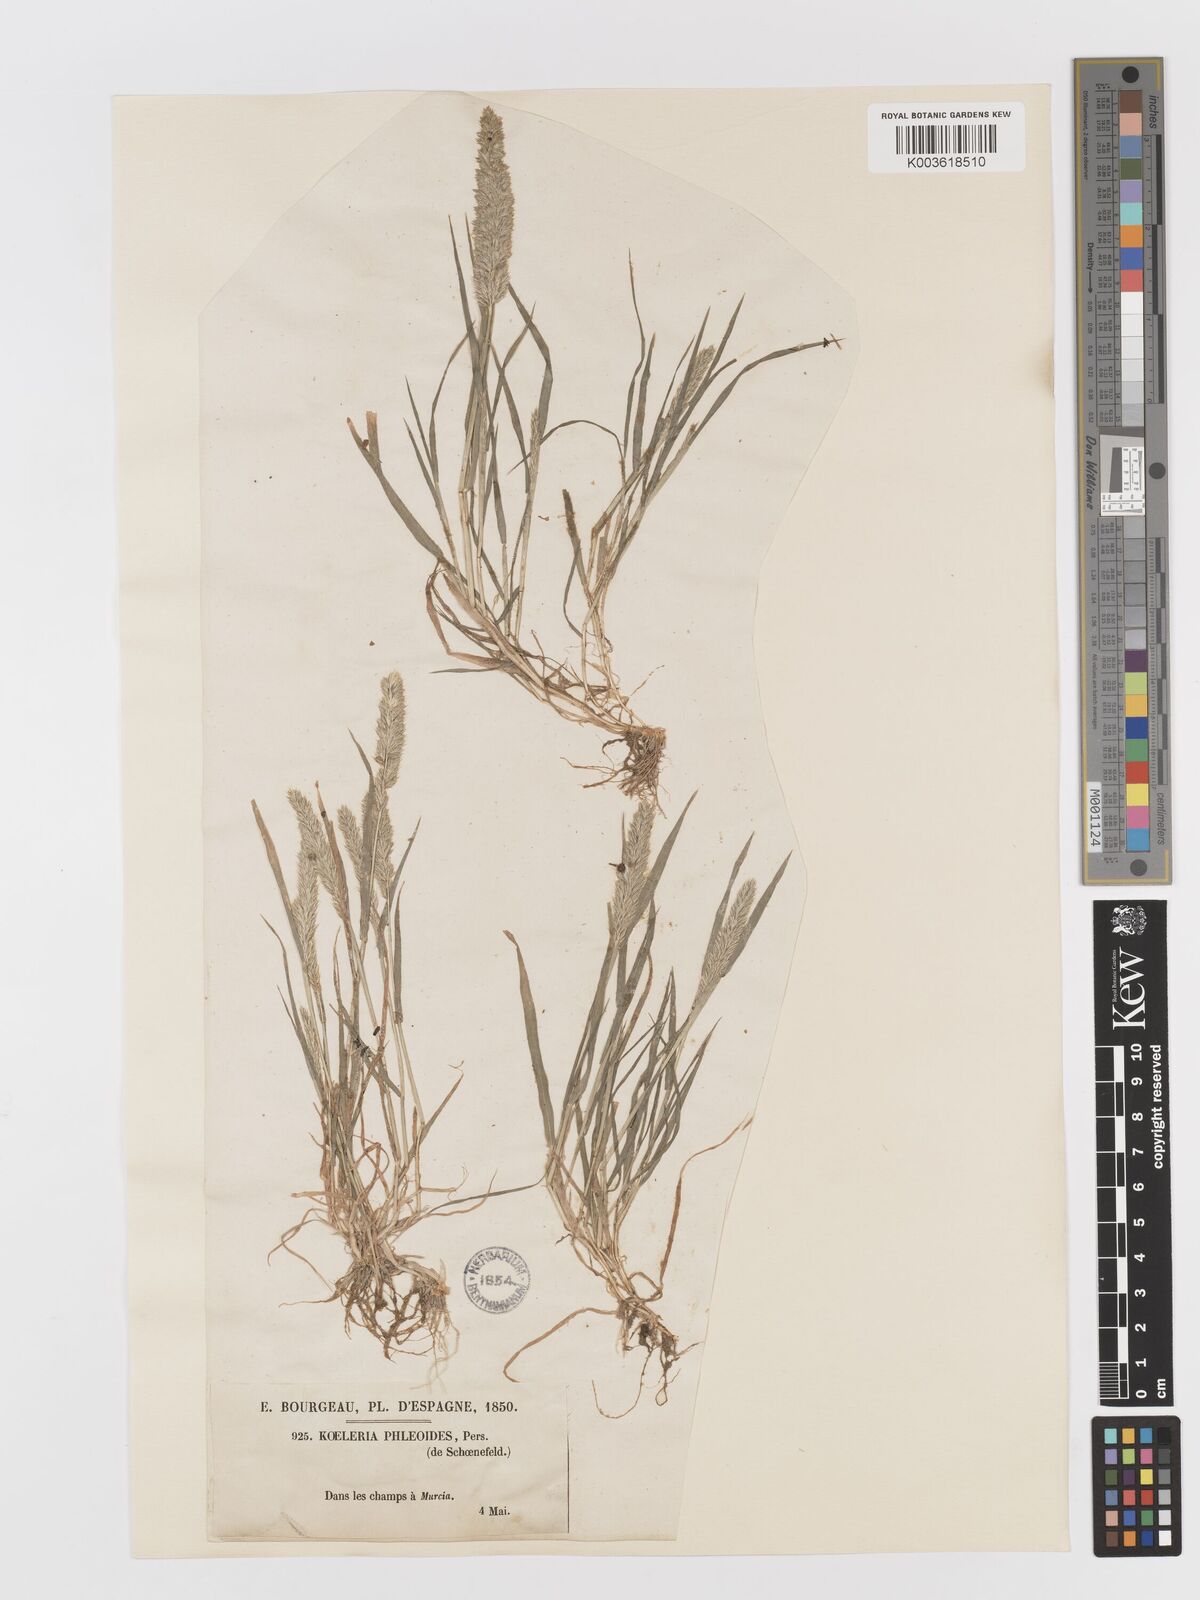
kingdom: Plantae
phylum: Tracheophyta
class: Liliopsida
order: Poales
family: Poaceae
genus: Rostraria
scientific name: Rostraria cristata
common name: Mediterranean hair-grass
